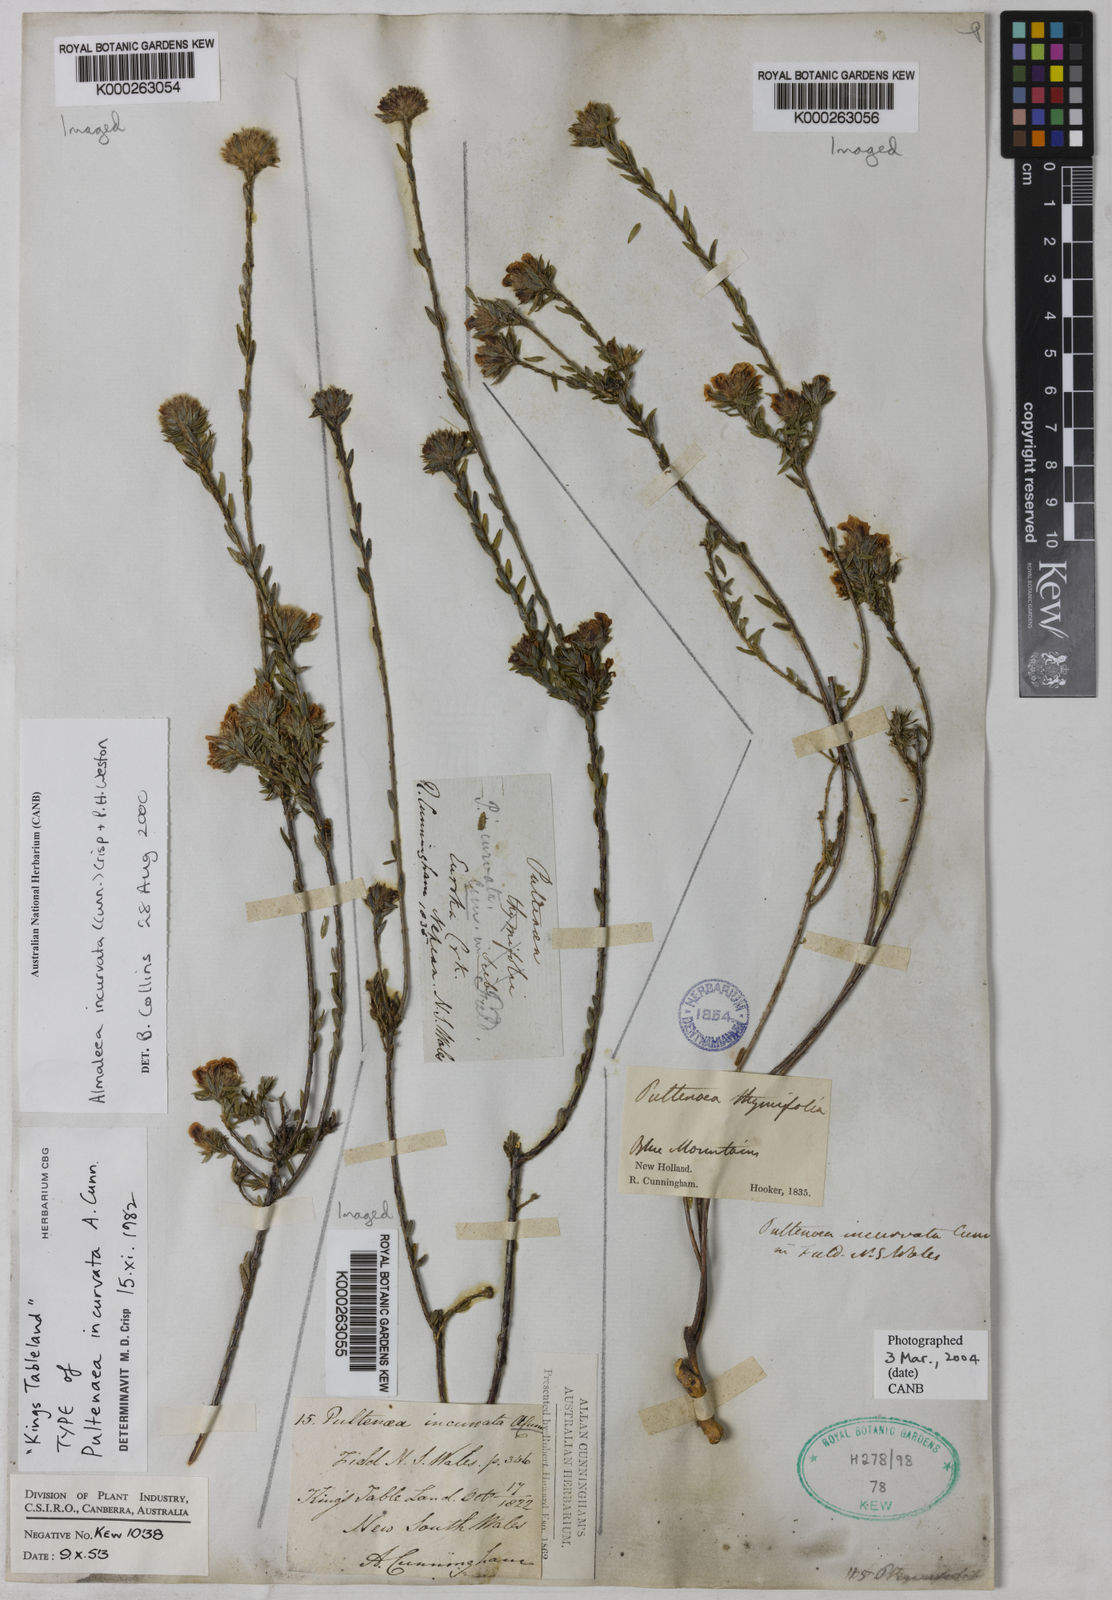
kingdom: Plantae
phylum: Tracheophyta
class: Magnoliopsida
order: Fabales
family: Fabaceae
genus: Almaleea
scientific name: Almaleea incurvata
